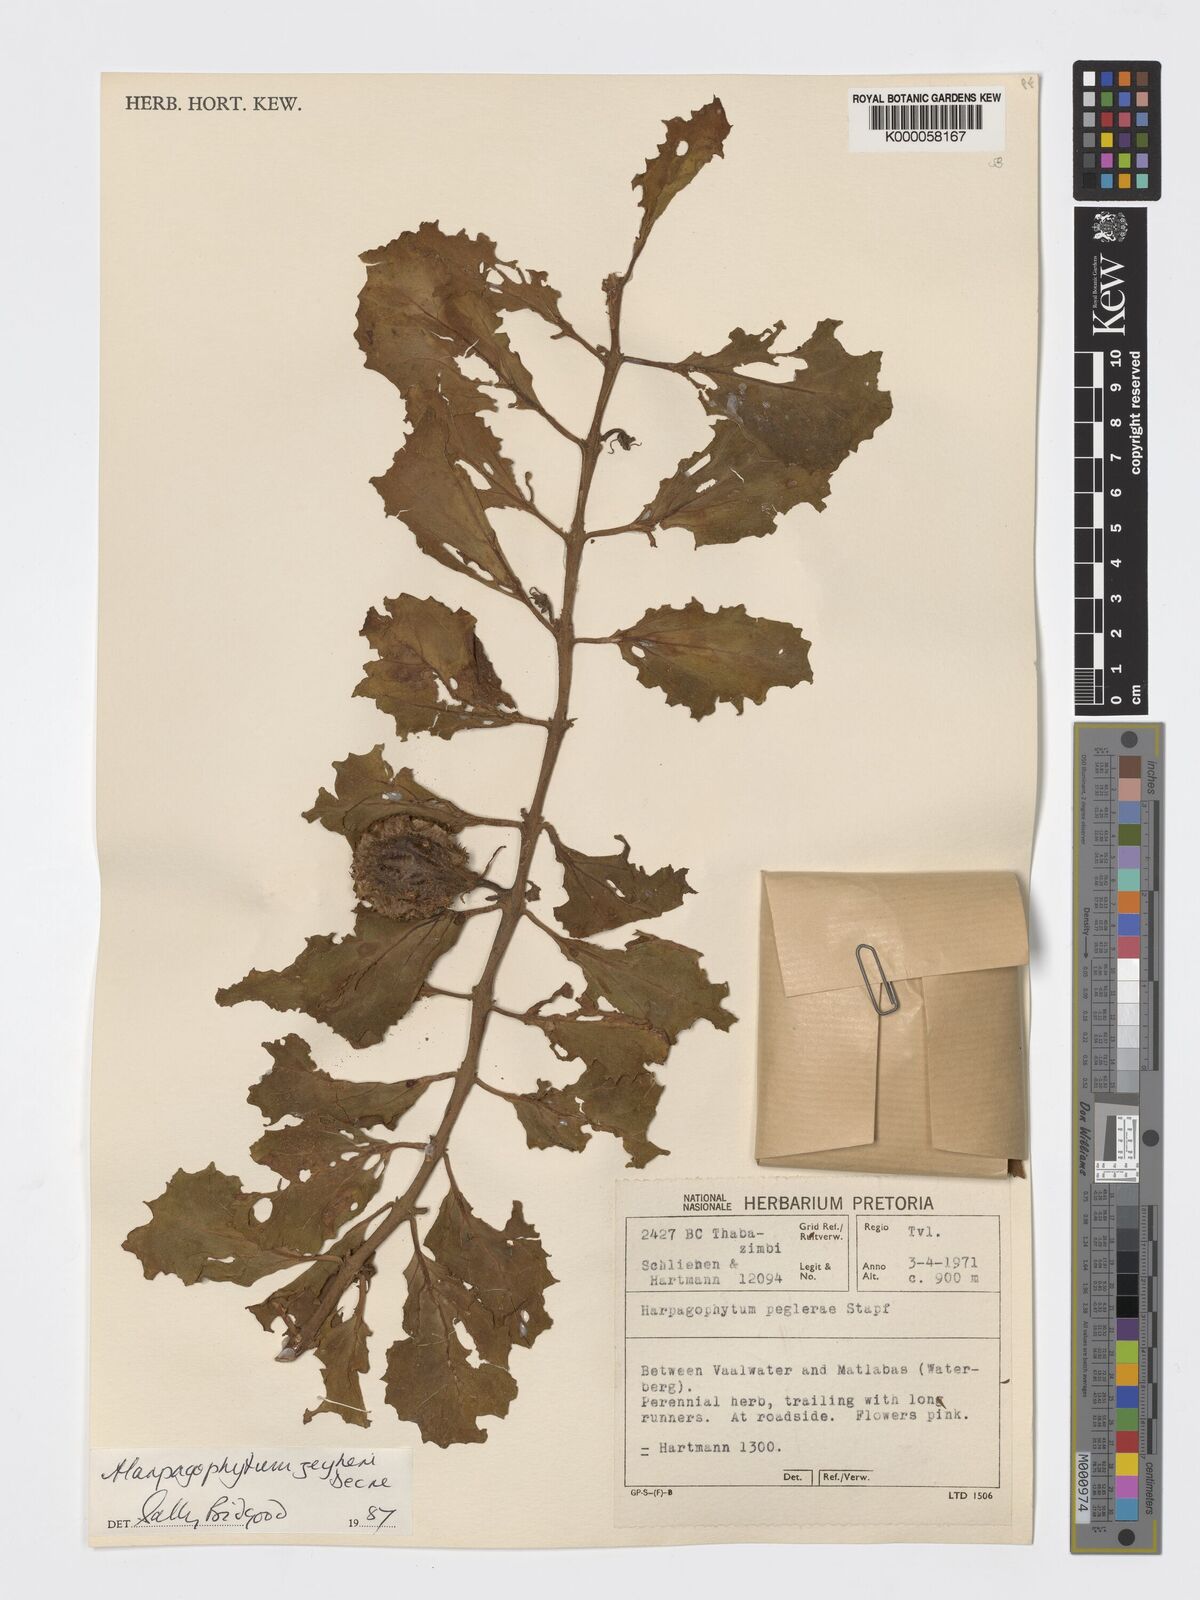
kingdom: Plantae
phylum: Tracheophyta
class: Magnoliopsida
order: Lamiales
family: Pedaliaceae
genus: Harpagophytum
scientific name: Harpagophytum zeyheri
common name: Grappleplant
